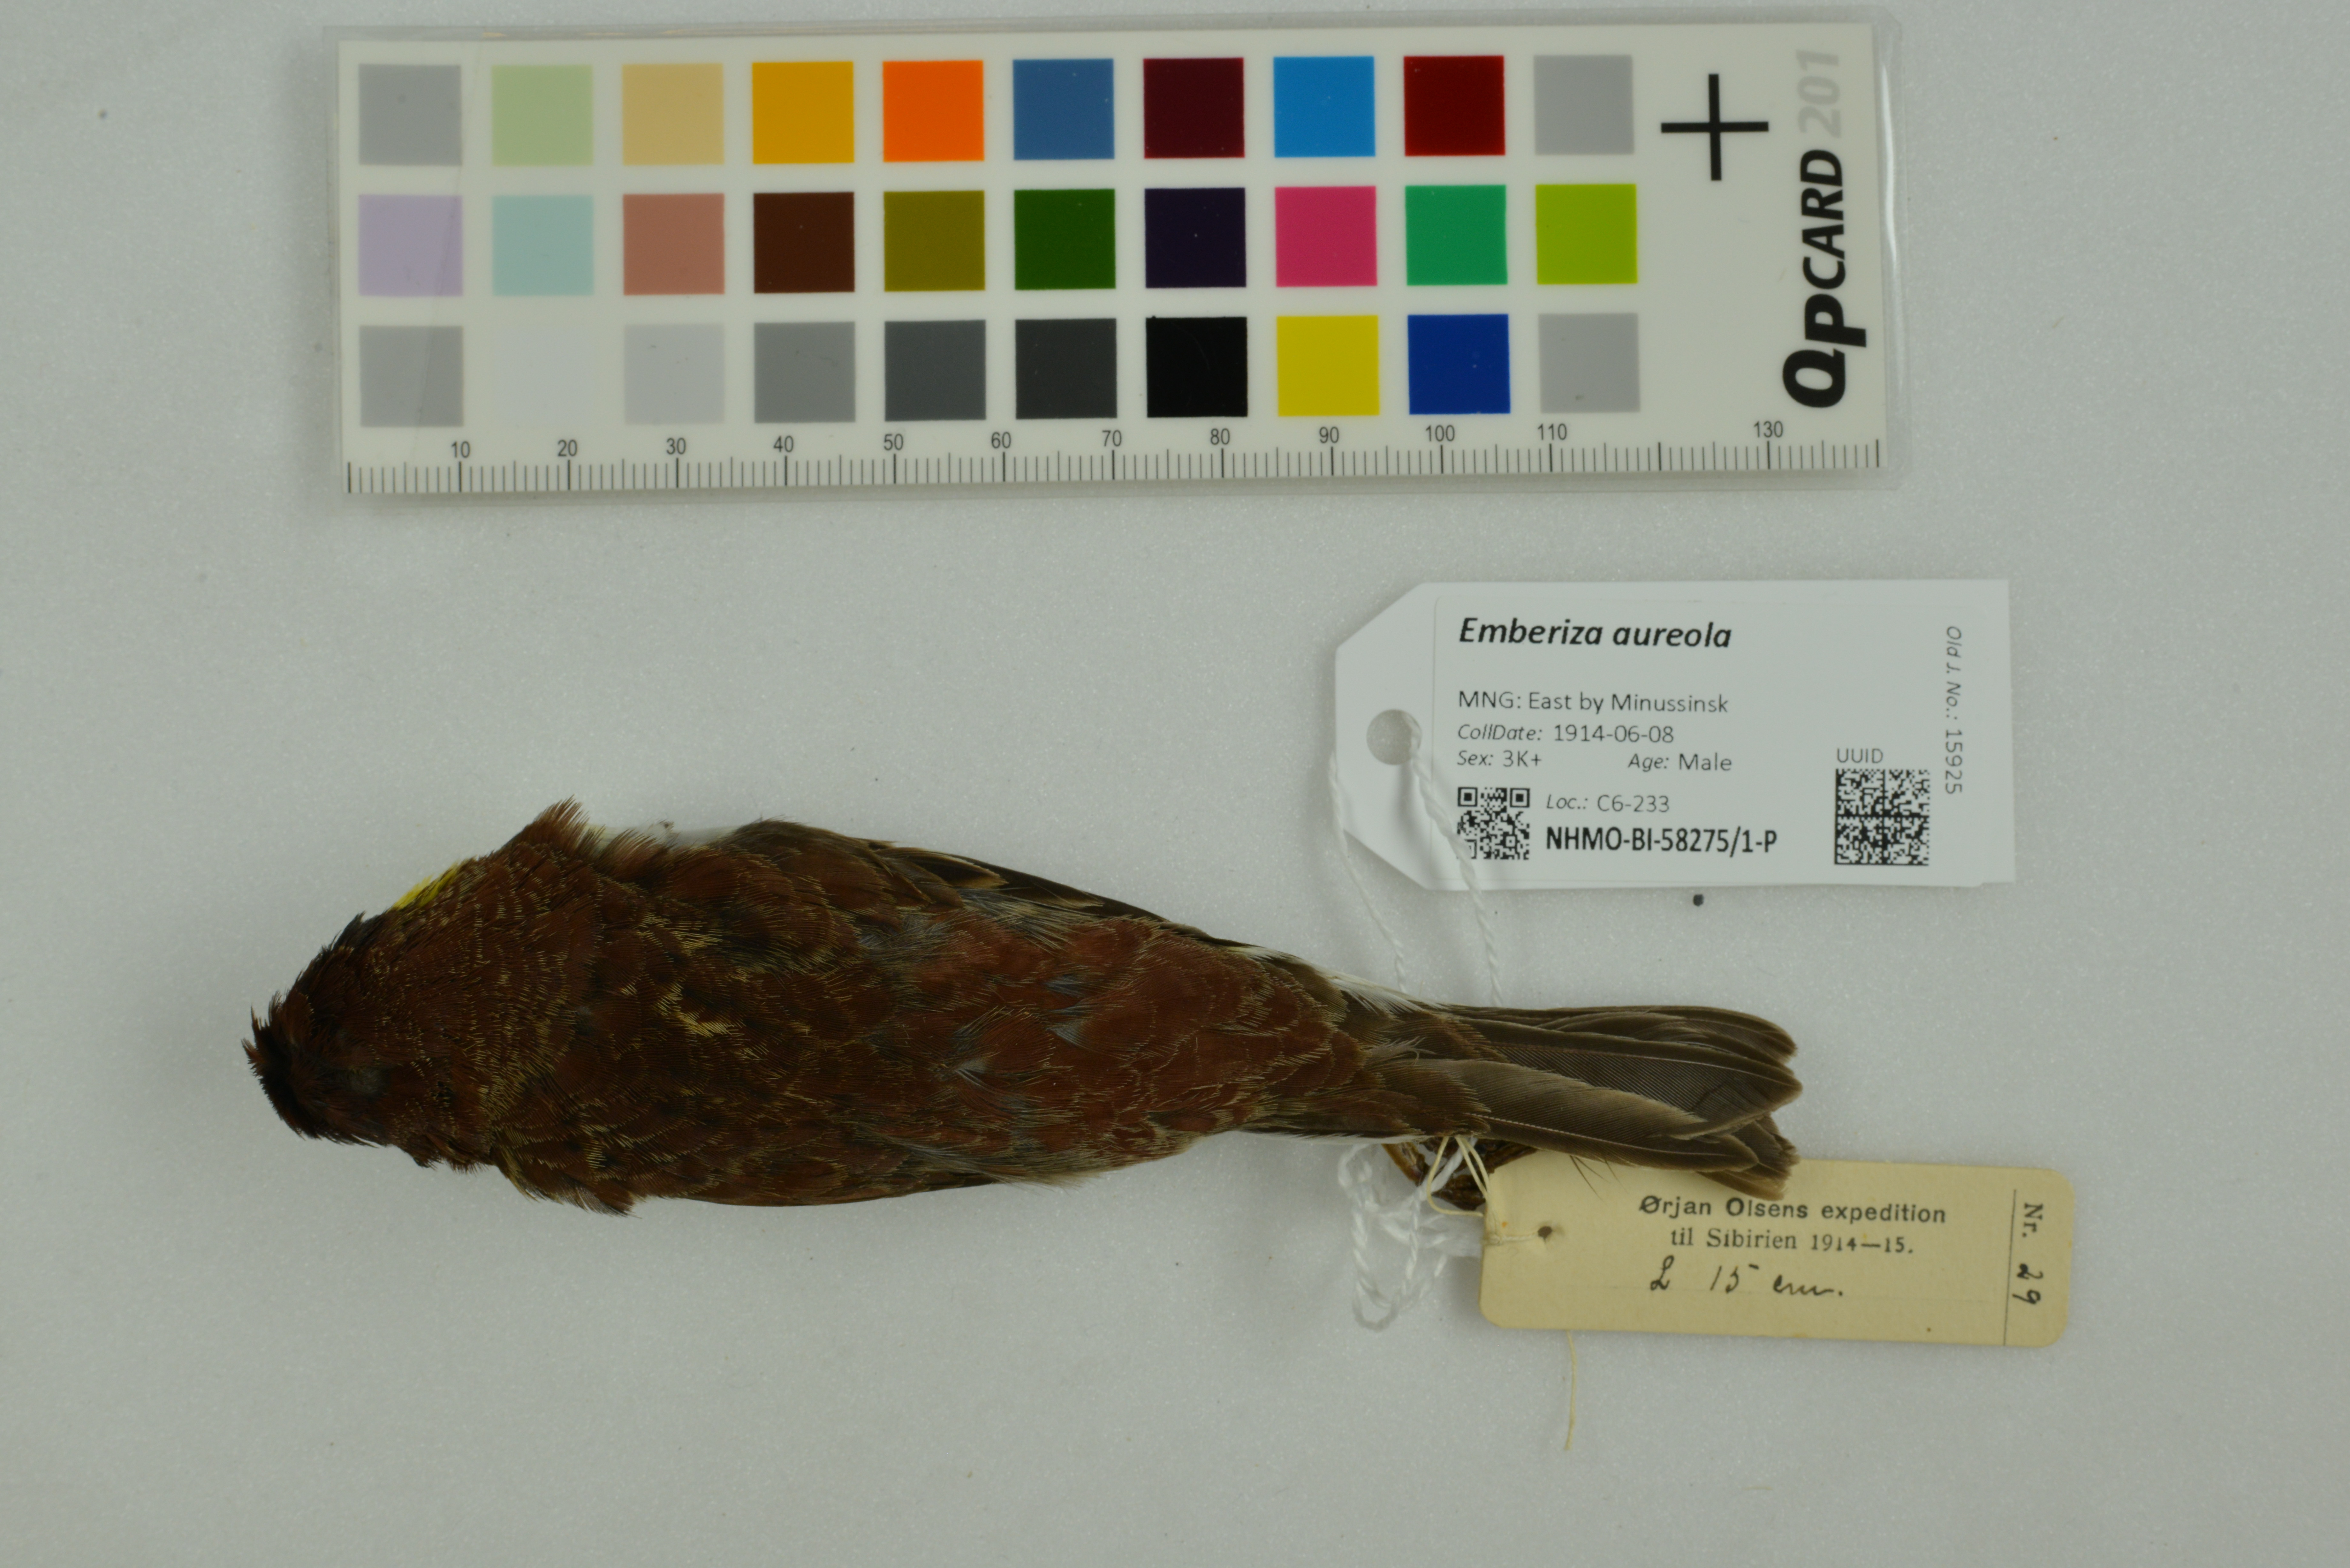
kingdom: Animalia
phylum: Chordata
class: Aves
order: Passeriformes
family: Emberizidae
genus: Emberiza
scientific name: Emberiza aureola
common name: Yellow-breasted bunting
